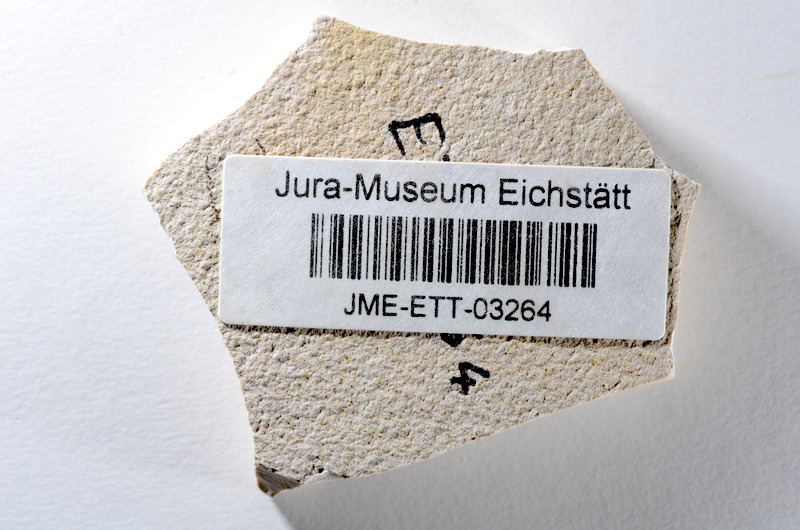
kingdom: Animalia
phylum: Chordata
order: Salmoniformes
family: Orthogonikleithridae
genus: Orthogonikleithrus
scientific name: Orthogonikleithrus hoelli
